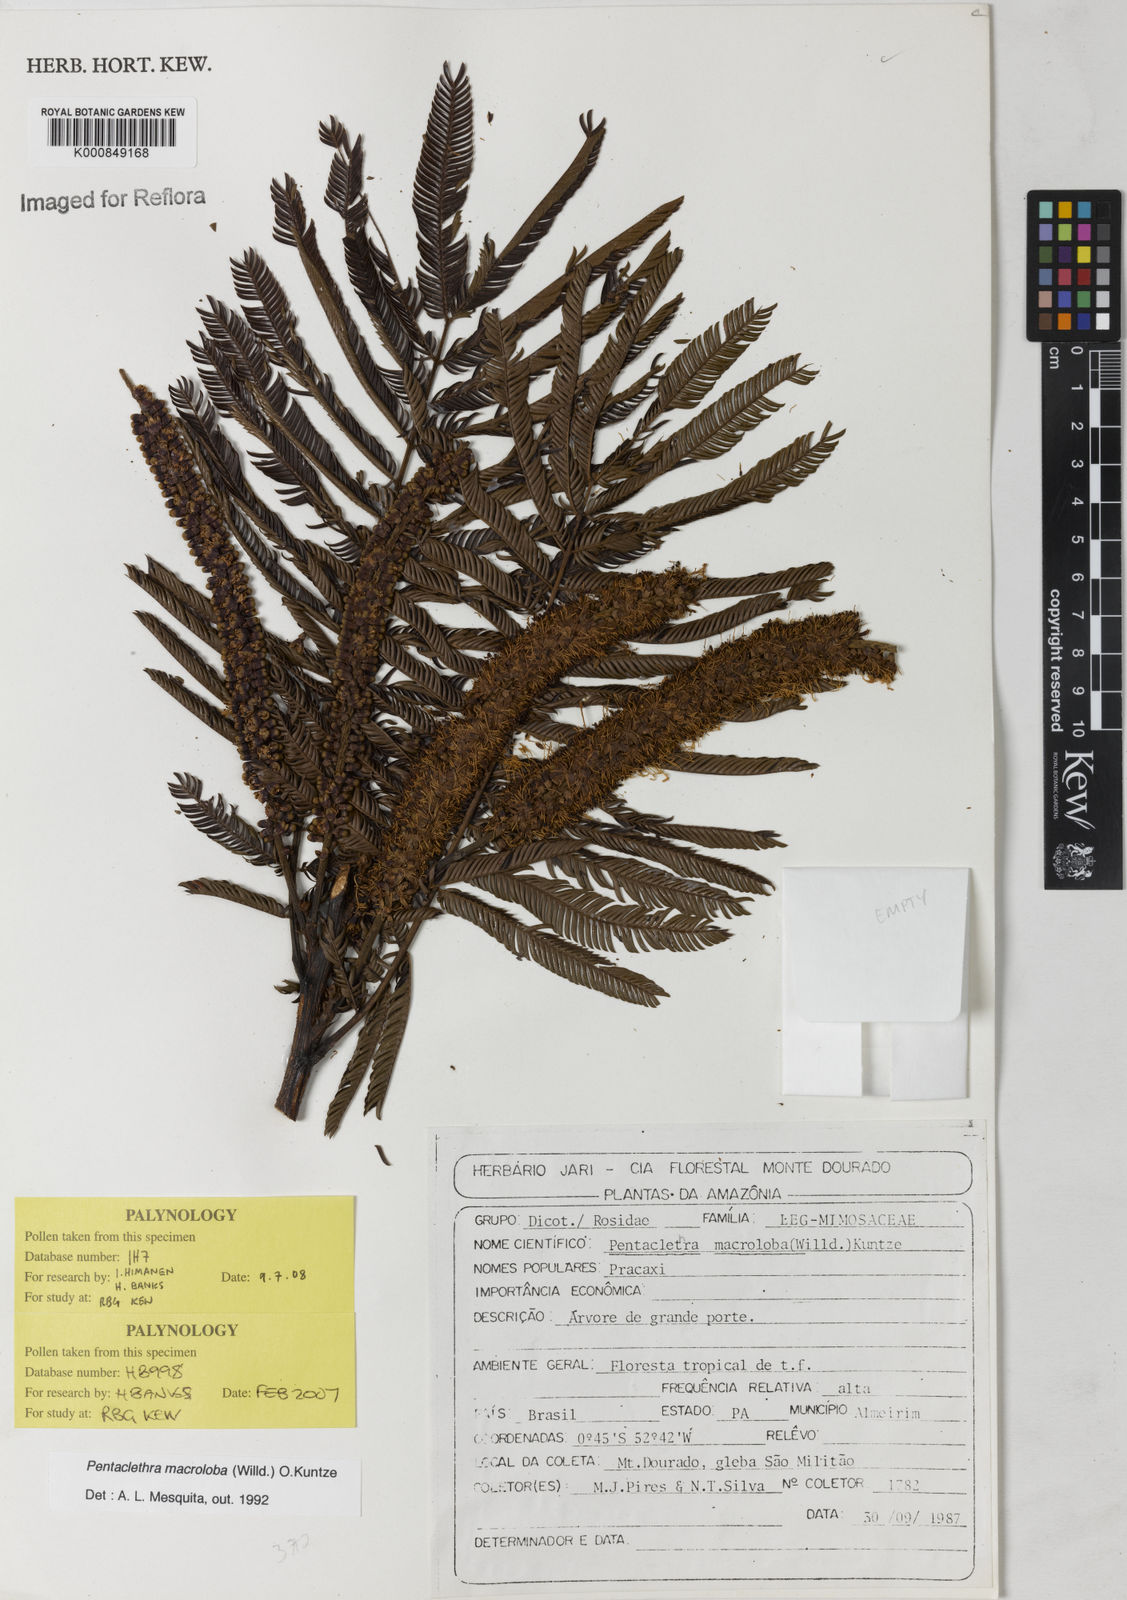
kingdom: Plantae
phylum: Tracheophyta
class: Magnoliopsida
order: Fabales
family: Fabaceae
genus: Pentaclethra
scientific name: Pentaclethra macroloba
